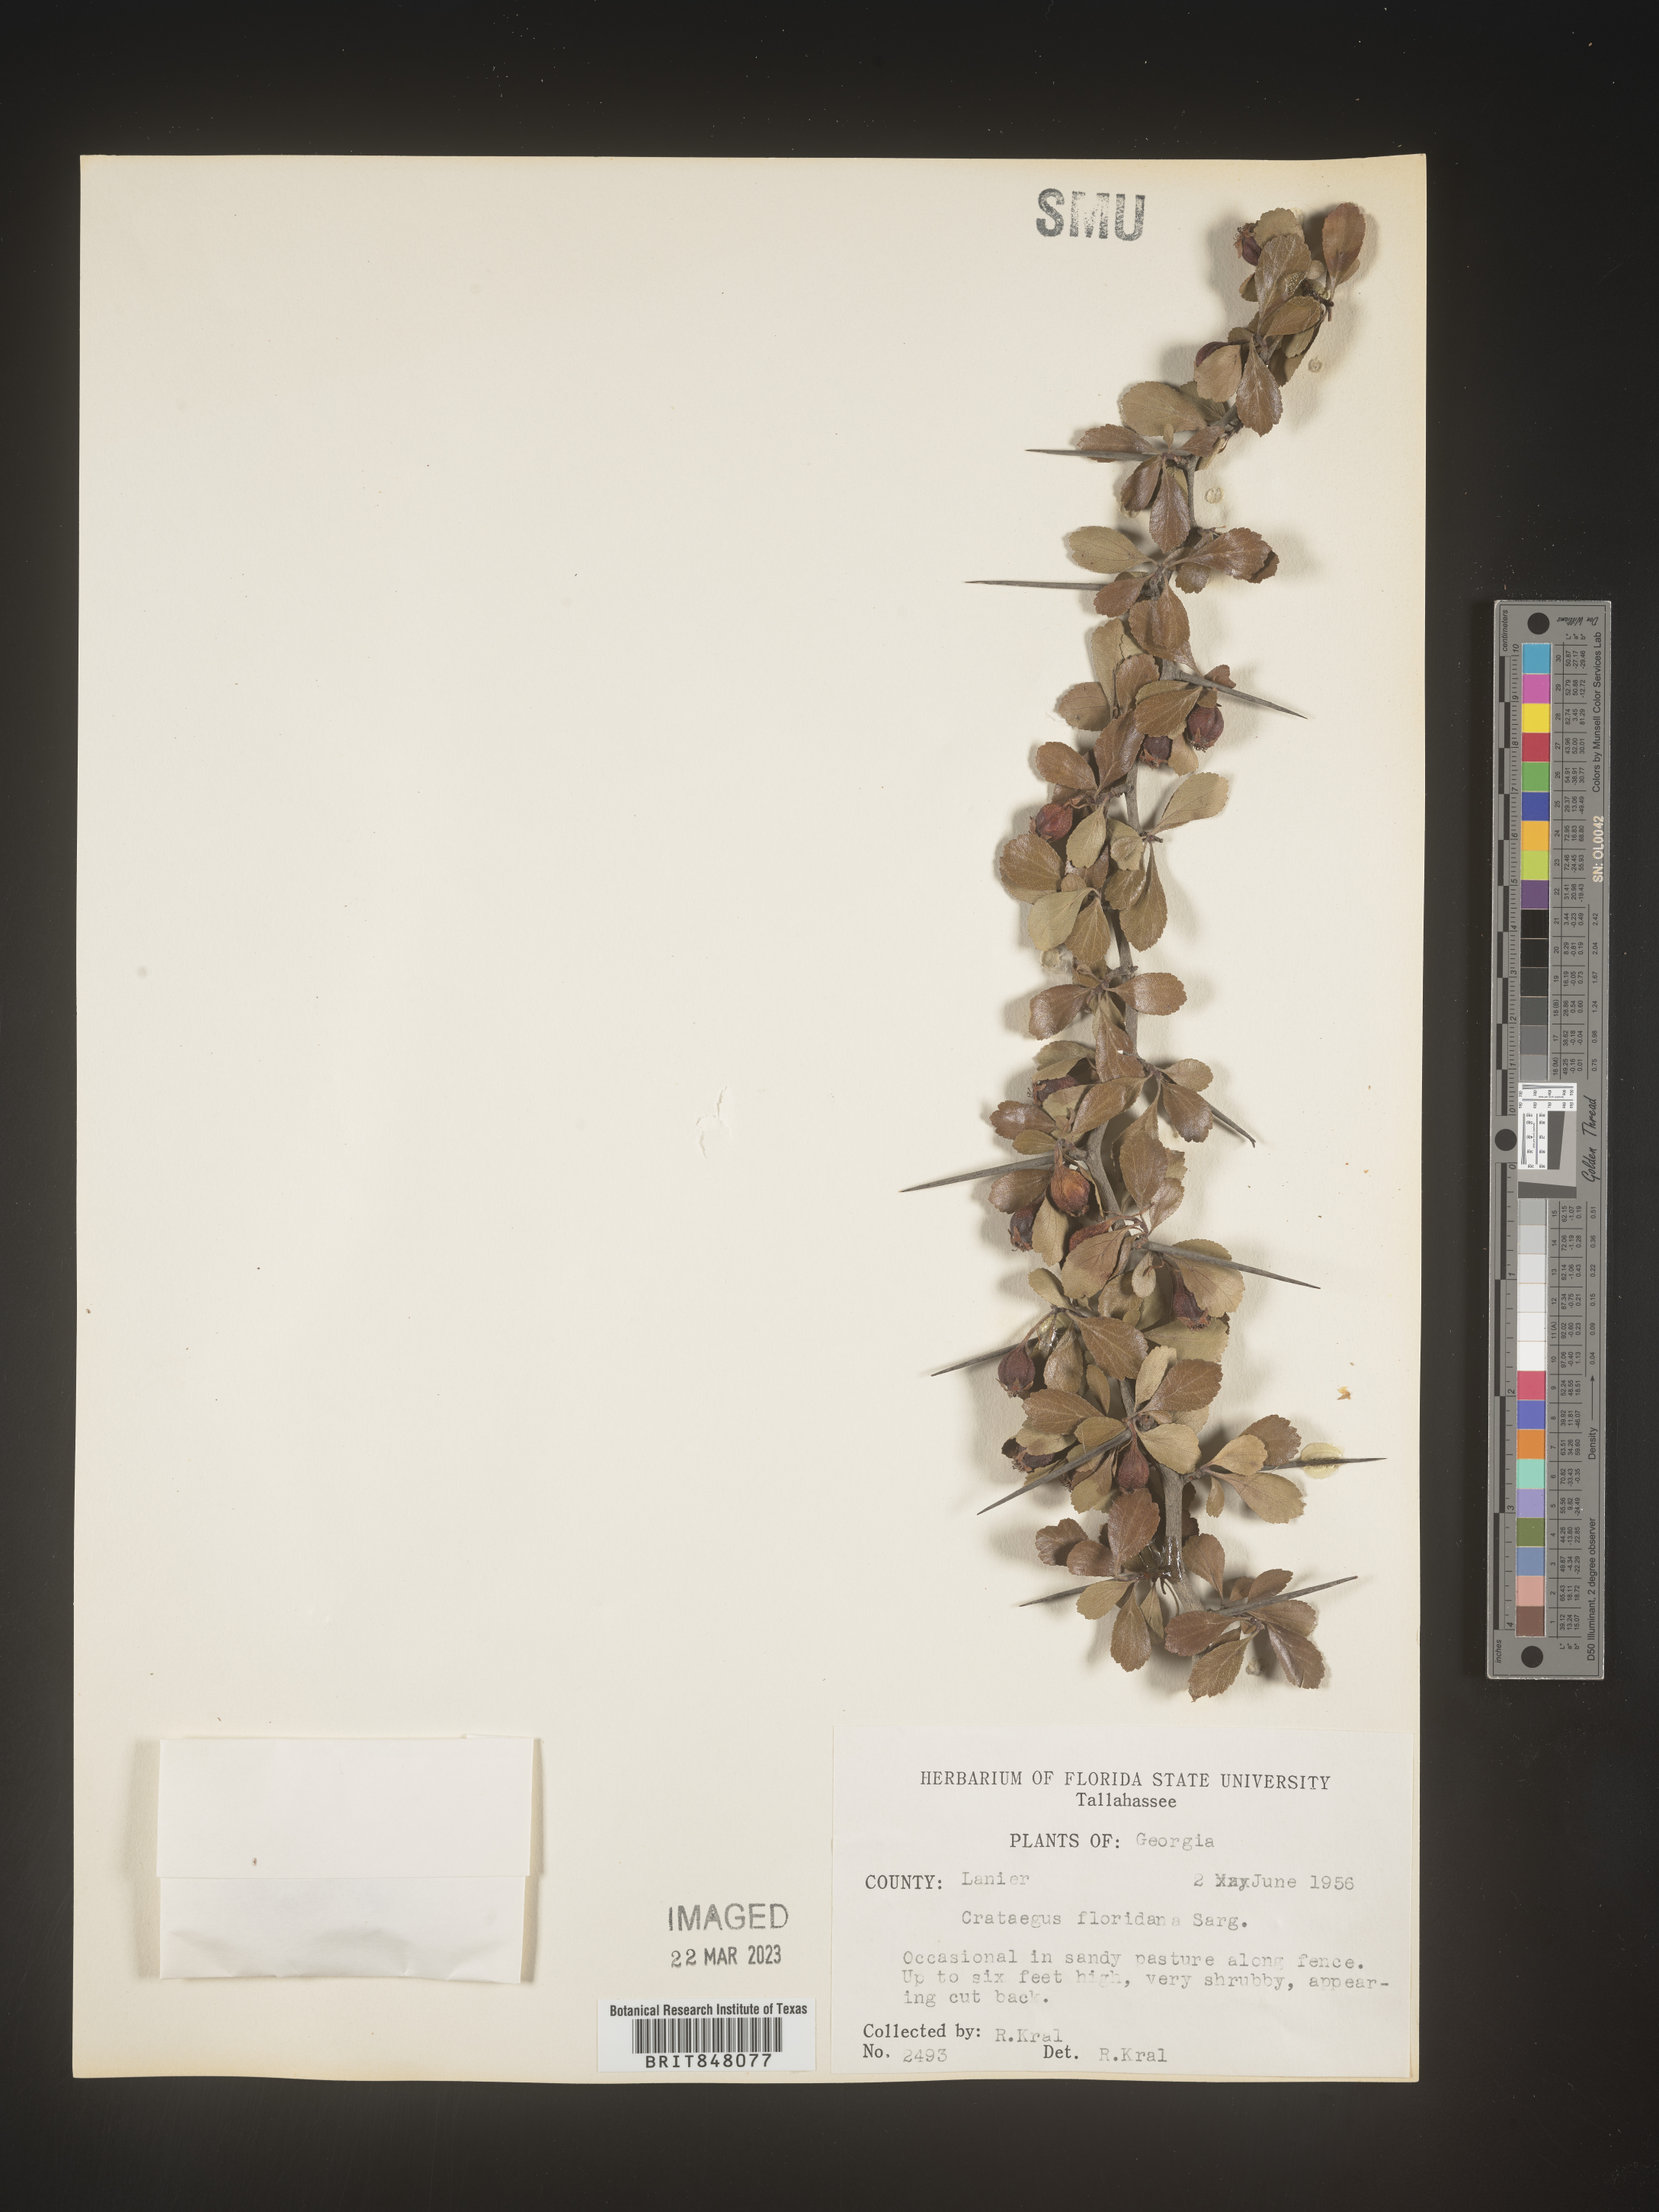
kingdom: Plantae
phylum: Tracheophyta
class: Magnoliopsida
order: Rosales
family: Rosaceae
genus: Crataegus
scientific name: Crataegus
